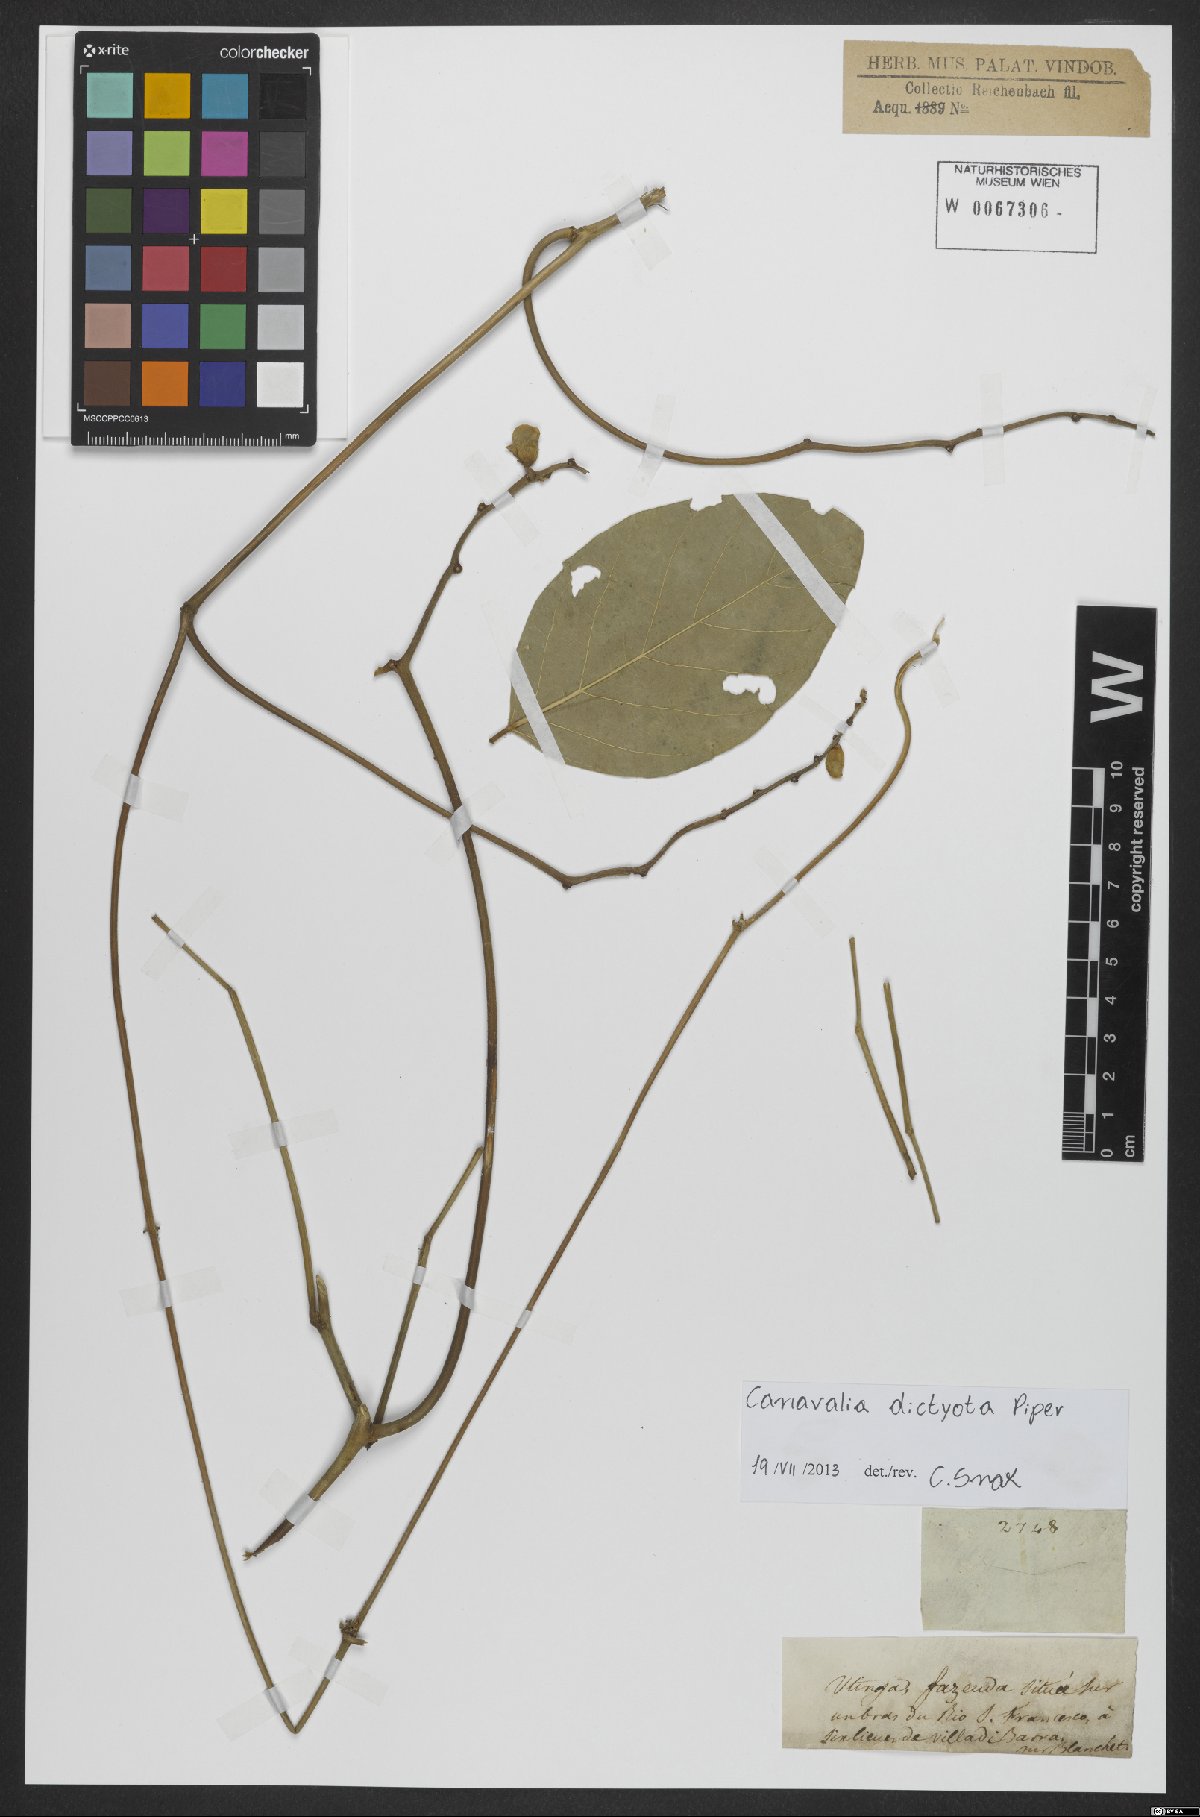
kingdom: Plantae
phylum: Tracheophyta
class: Magnoliopsida
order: Fabales
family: Fabaceae
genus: Canavalia
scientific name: Canavalia brasiliensis
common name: Barbicou-bean
